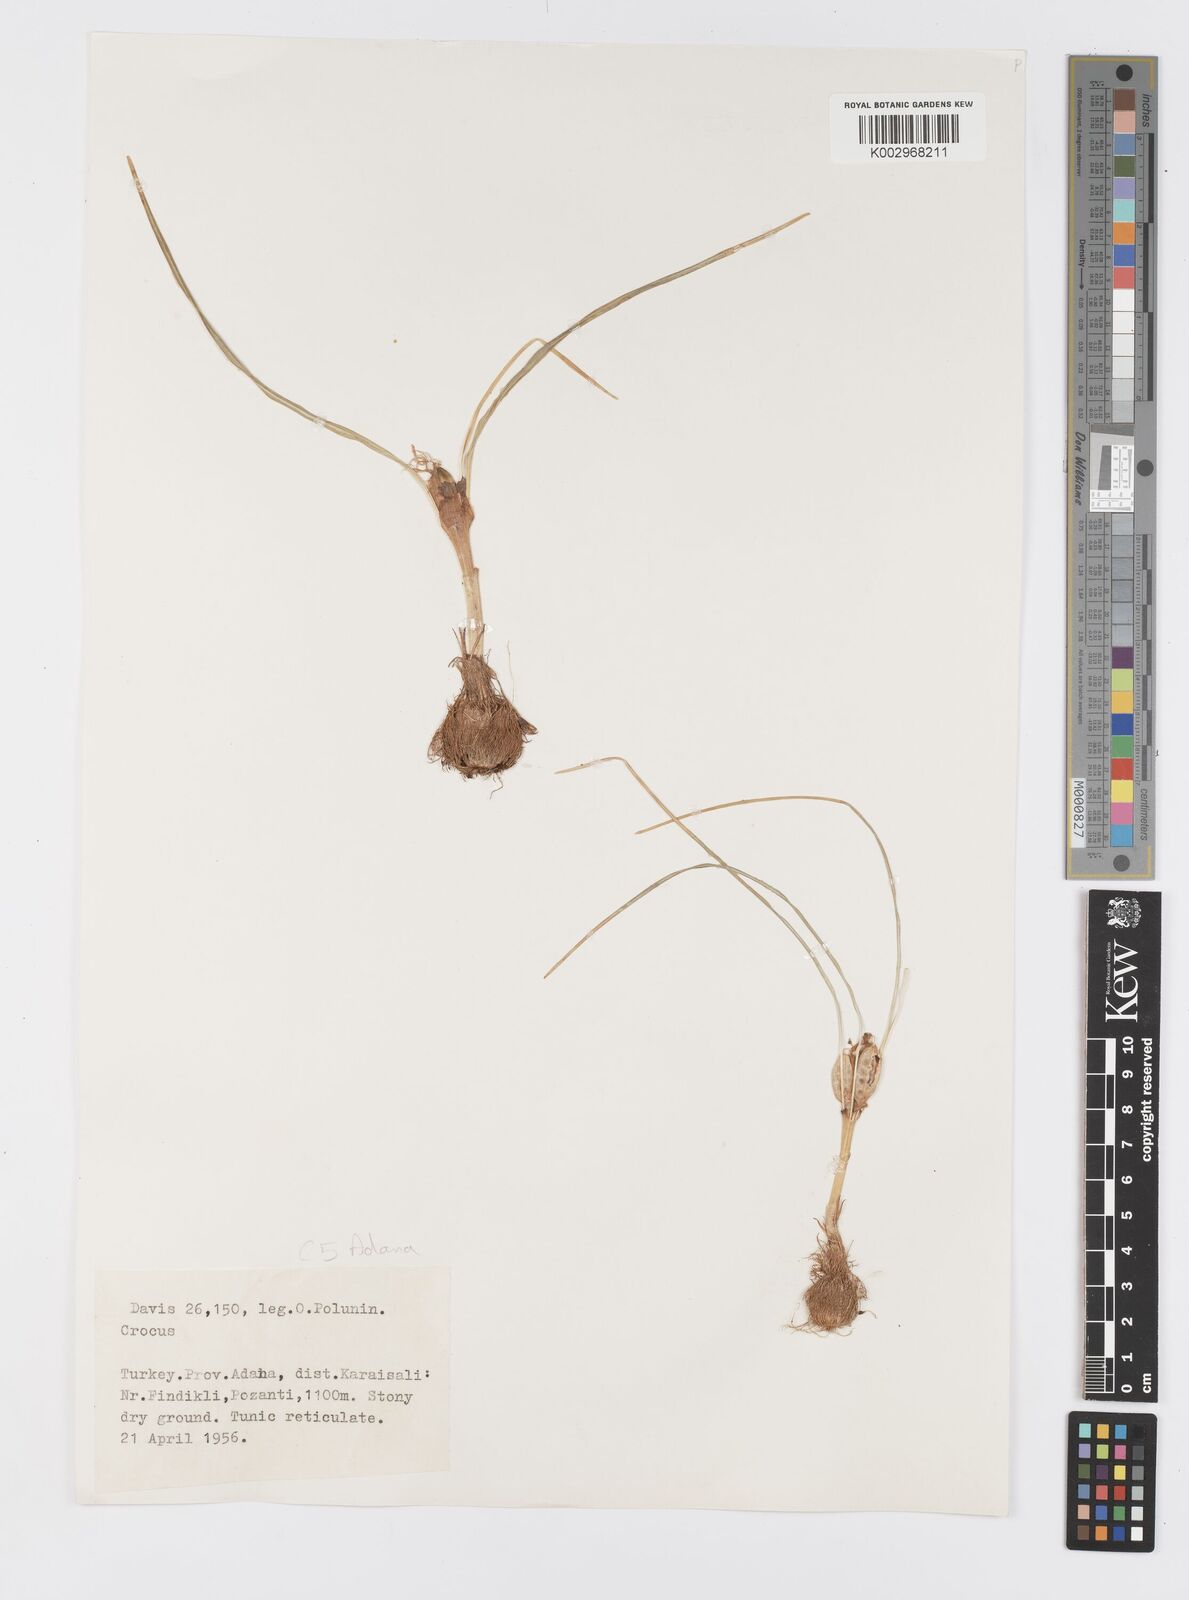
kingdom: Plantae
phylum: Tracheophyta
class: Liliopsida
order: Asparagales
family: Iridaceae
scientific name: Iridaceae
